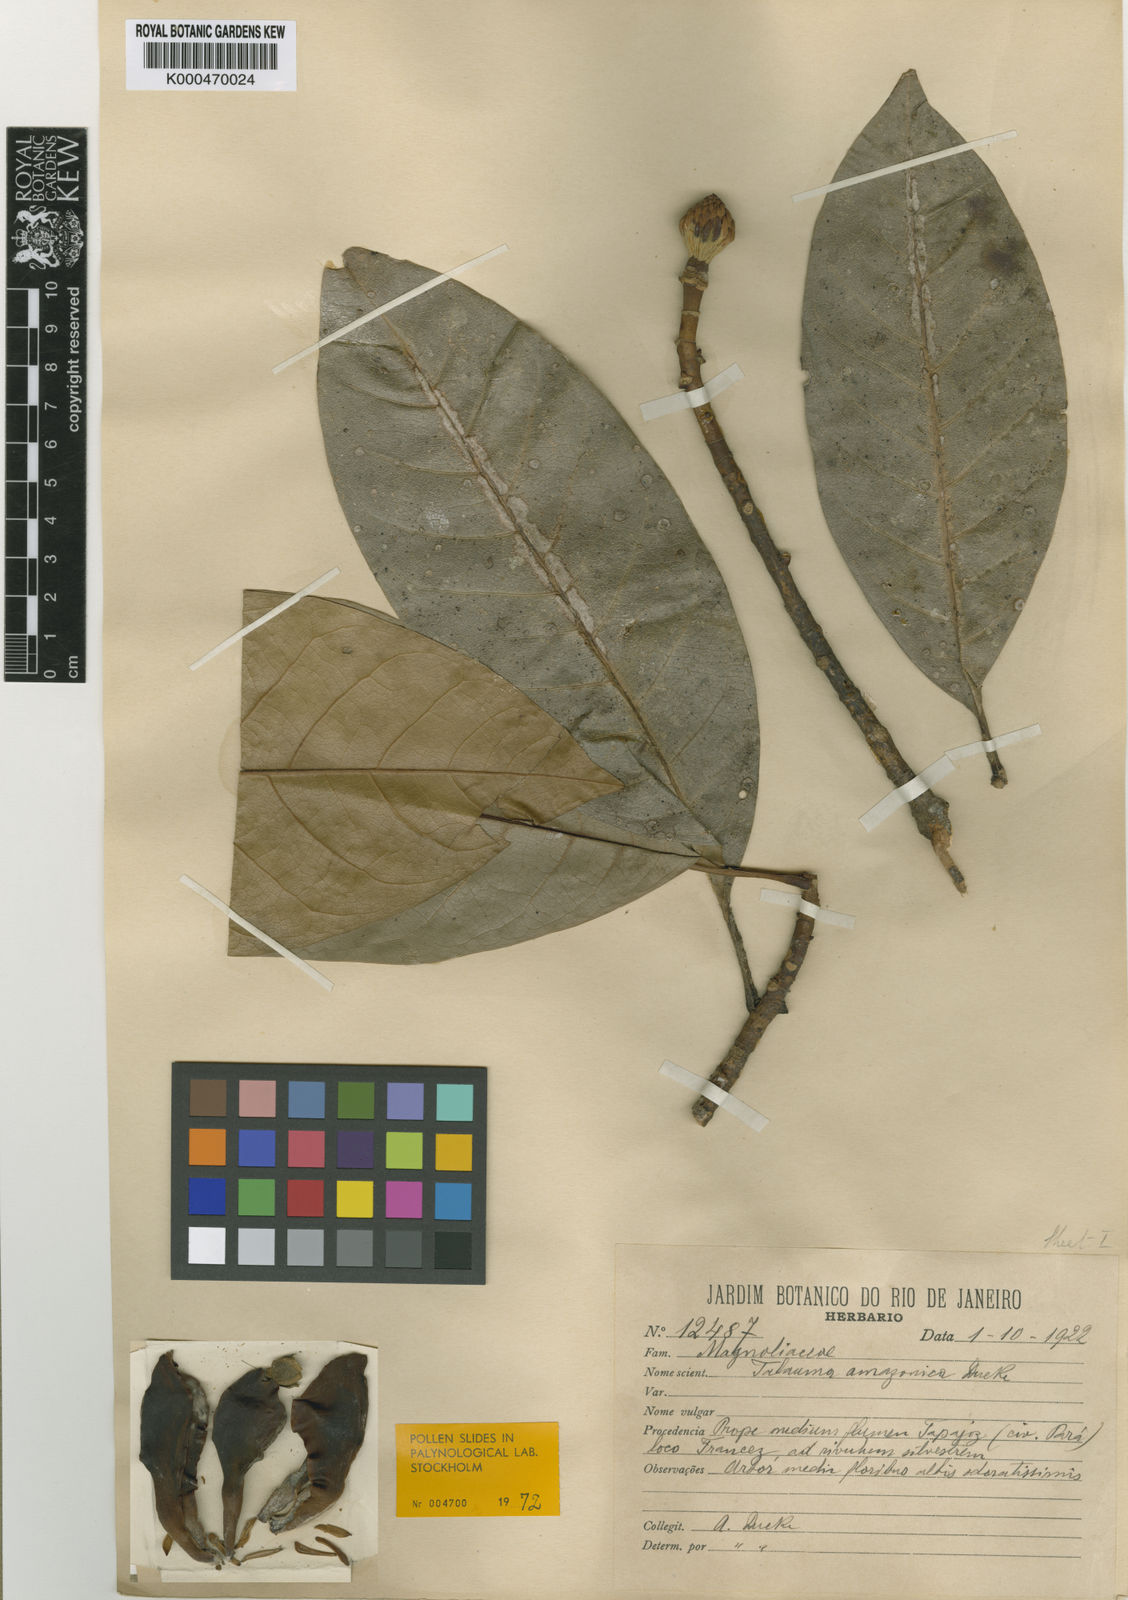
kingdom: Plantae
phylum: Tracheophyta
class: Magnoliopsida
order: Magnoliales
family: Magnoliaceae
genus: Magnolia
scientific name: Magnolia amazonica
